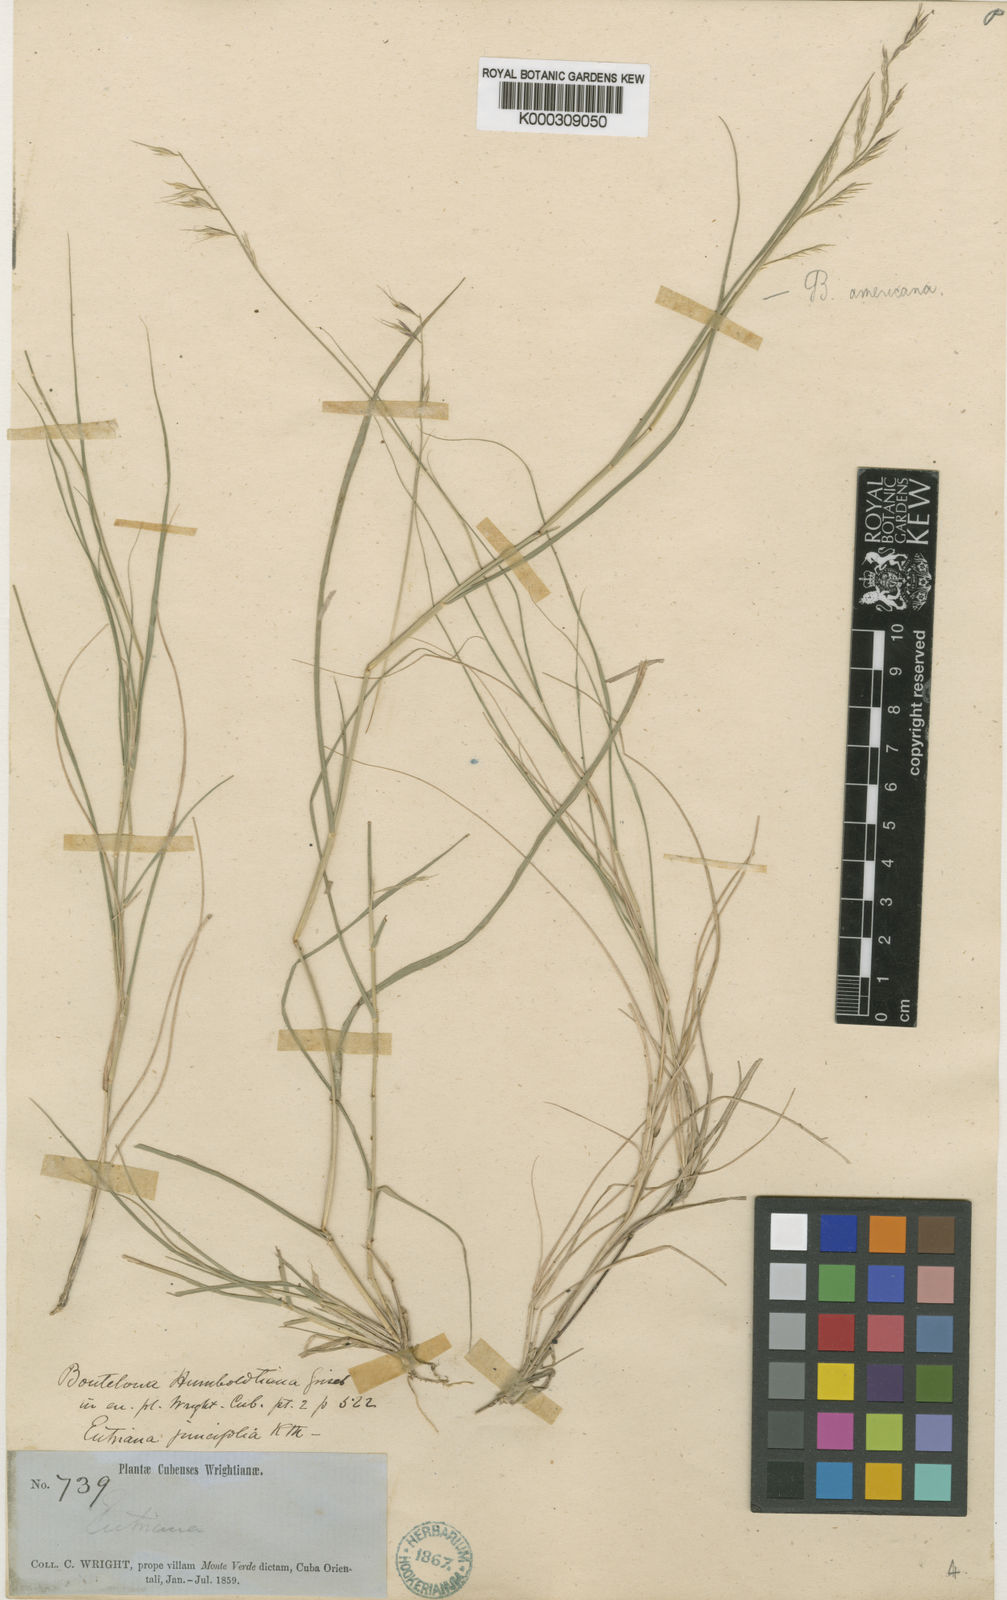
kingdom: Plantae
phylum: Tracheophyta
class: Liliopsida
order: Poales
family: Poaceae
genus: Bouteloua
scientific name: Bouteloua repens
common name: Slender grama
